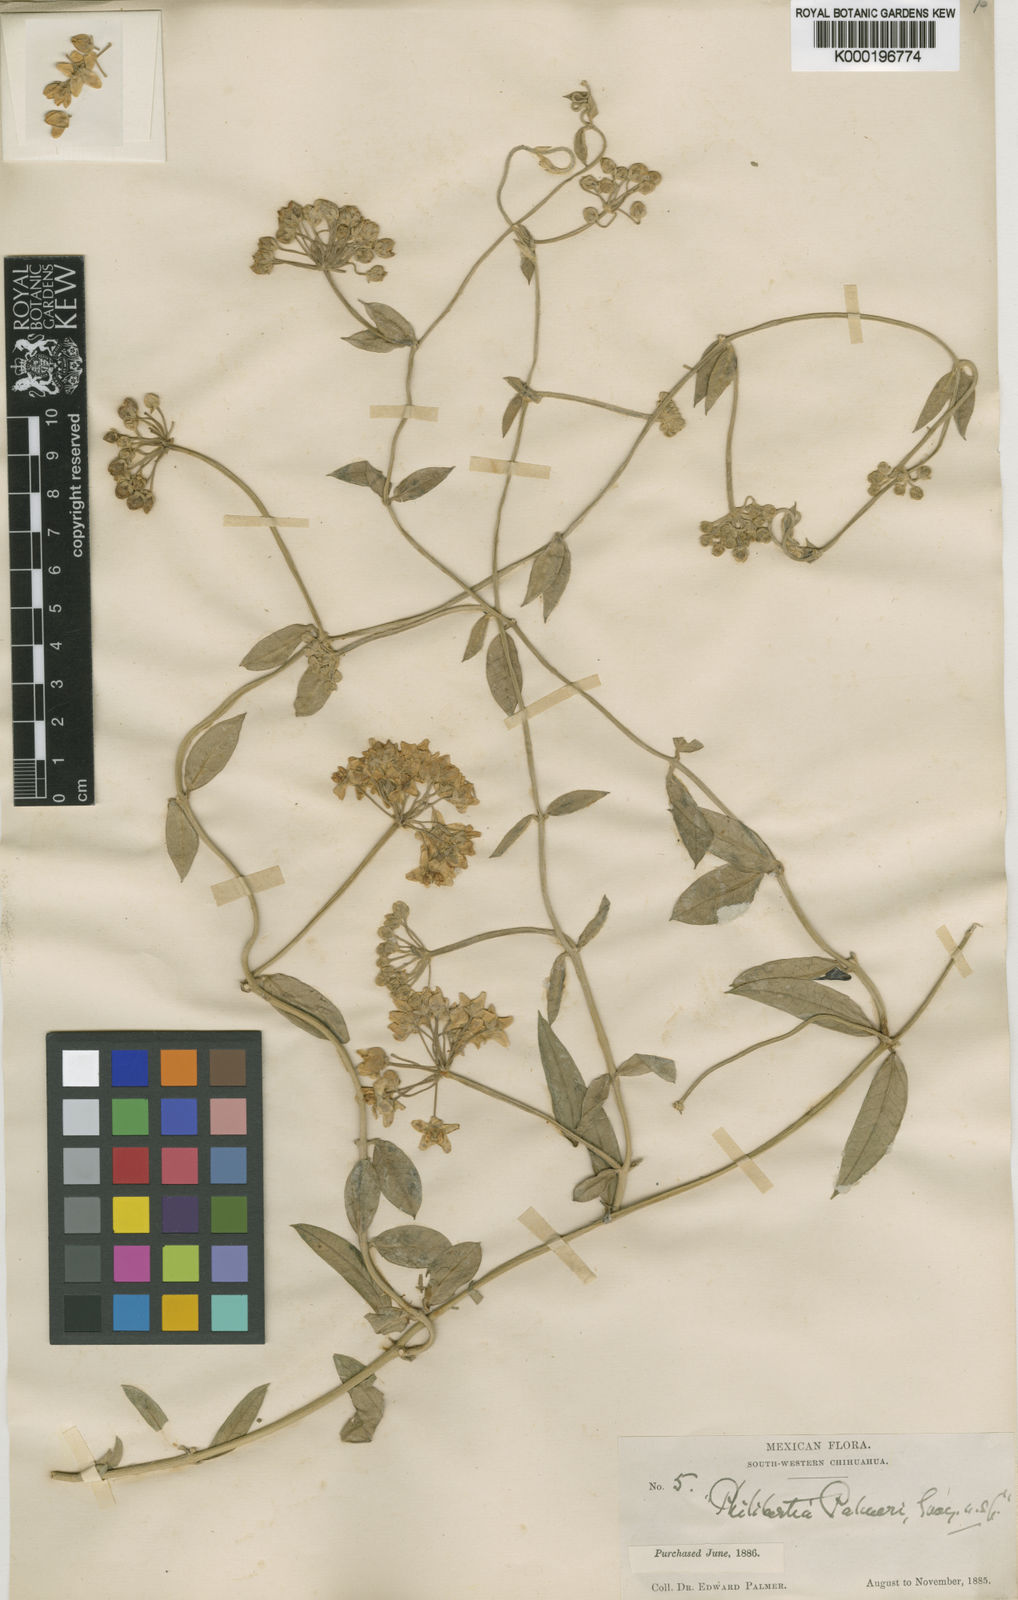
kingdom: Plantae
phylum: Tracheophyta
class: Magnoliopsida
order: Gentianales
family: Apocynaceae
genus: Funastrum
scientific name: Funastrum clausum
